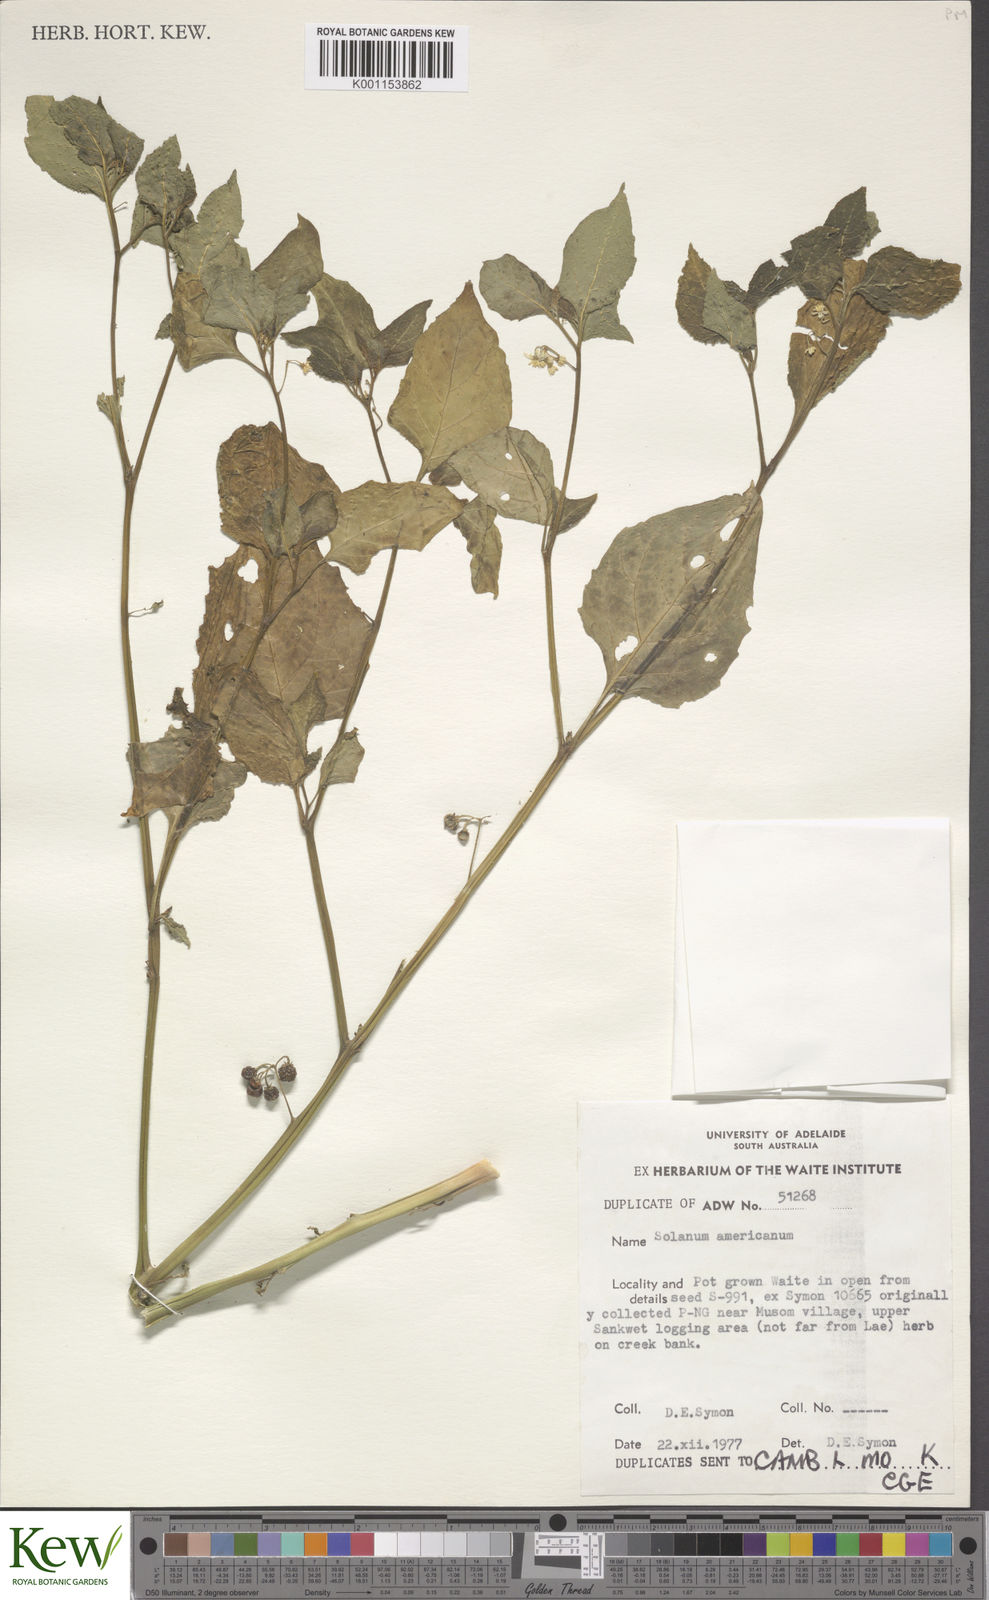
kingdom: Plantae
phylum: Tracheophyta
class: Magnoliopsida
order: Solanales
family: Solanaceae
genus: Solanum
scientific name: Solanum americanum
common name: American black nightshade
